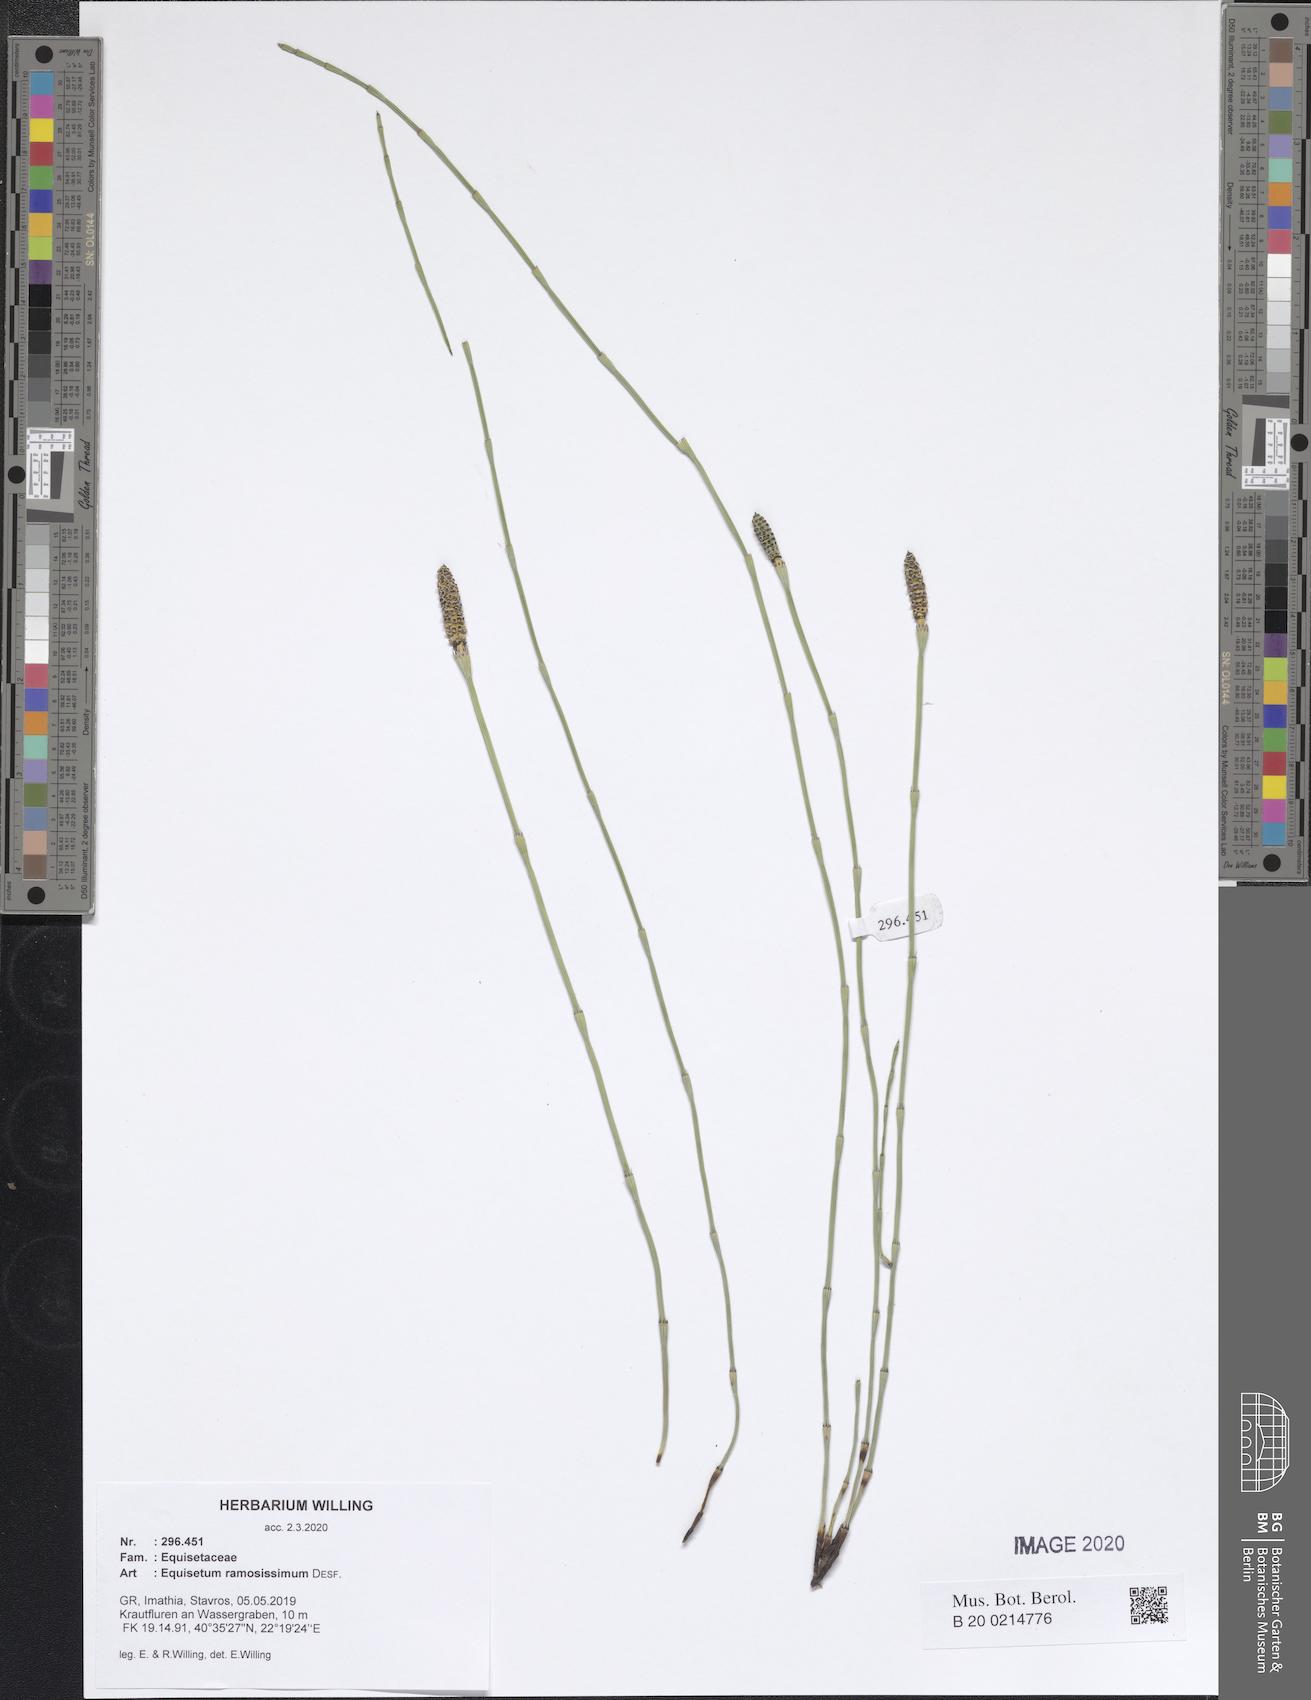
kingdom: Plantae
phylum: Tracheophyta
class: Polypodiopsida
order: Equisetales
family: Equisetaceae
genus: Equisetum
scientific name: Equisetum ramosissimum
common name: Branched horsetail
